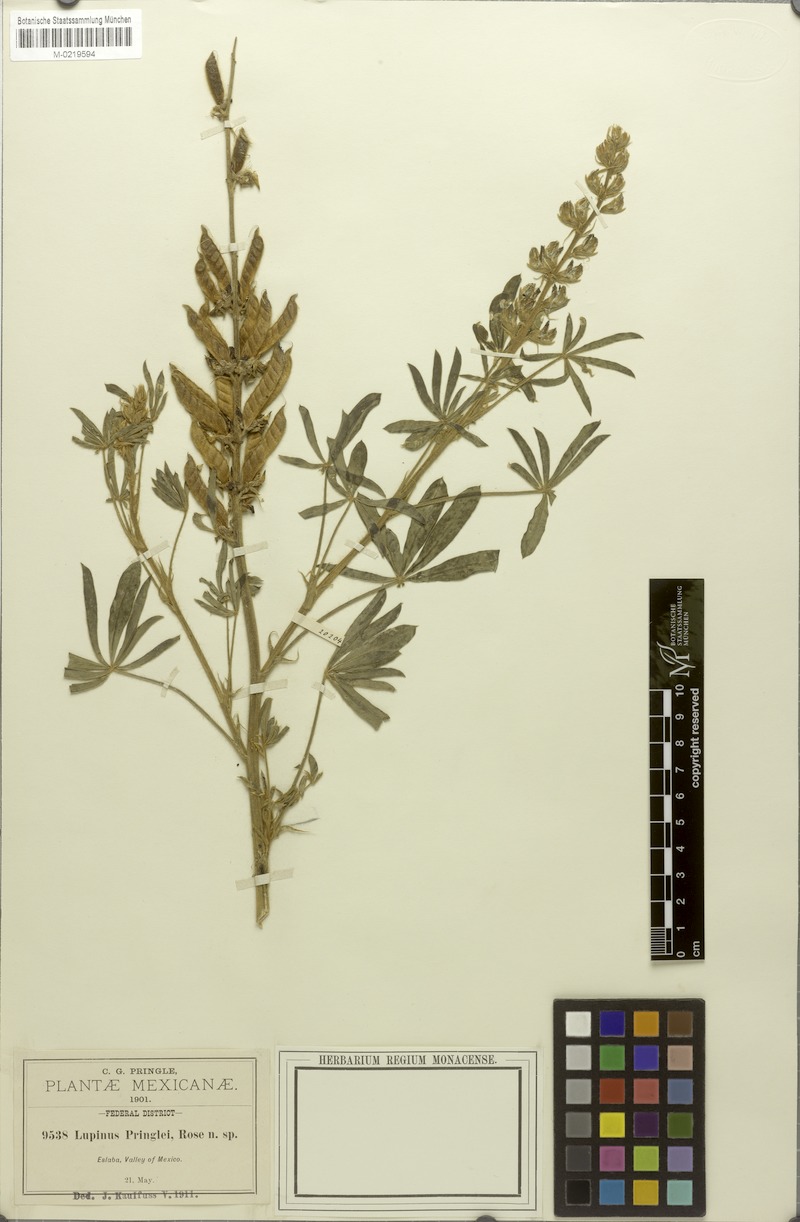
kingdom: Plantae
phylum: Tracheophyta
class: Magnoliopsida
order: Fabales
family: Fabaceae
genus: Lupinus
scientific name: Lupinus pringlei
